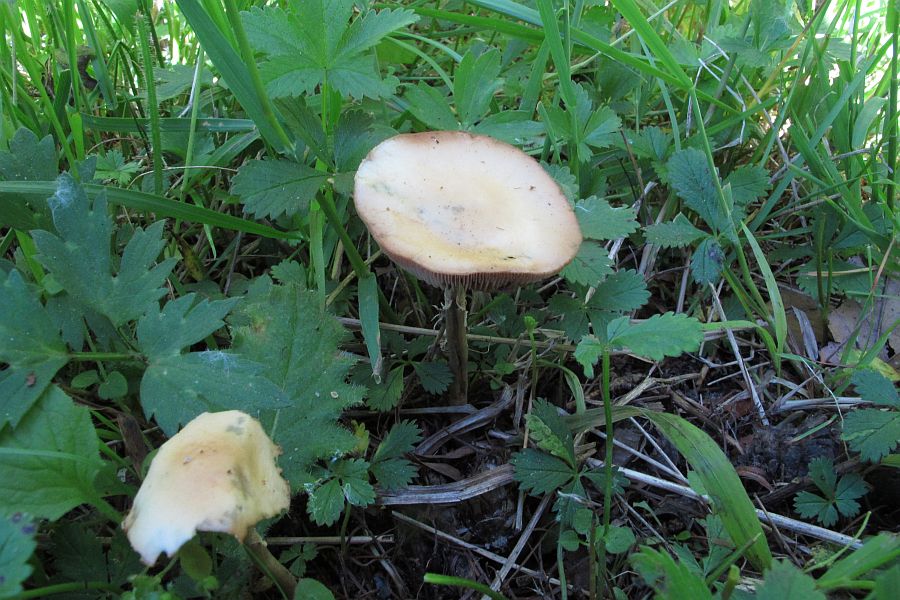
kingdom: Fungi
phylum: Basidiomycota
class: Agaricomycetes
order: Agaricales
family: Strophariaceae
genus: Agrocybe
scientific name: Agrocybe praecox
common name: tidlig agerhat
